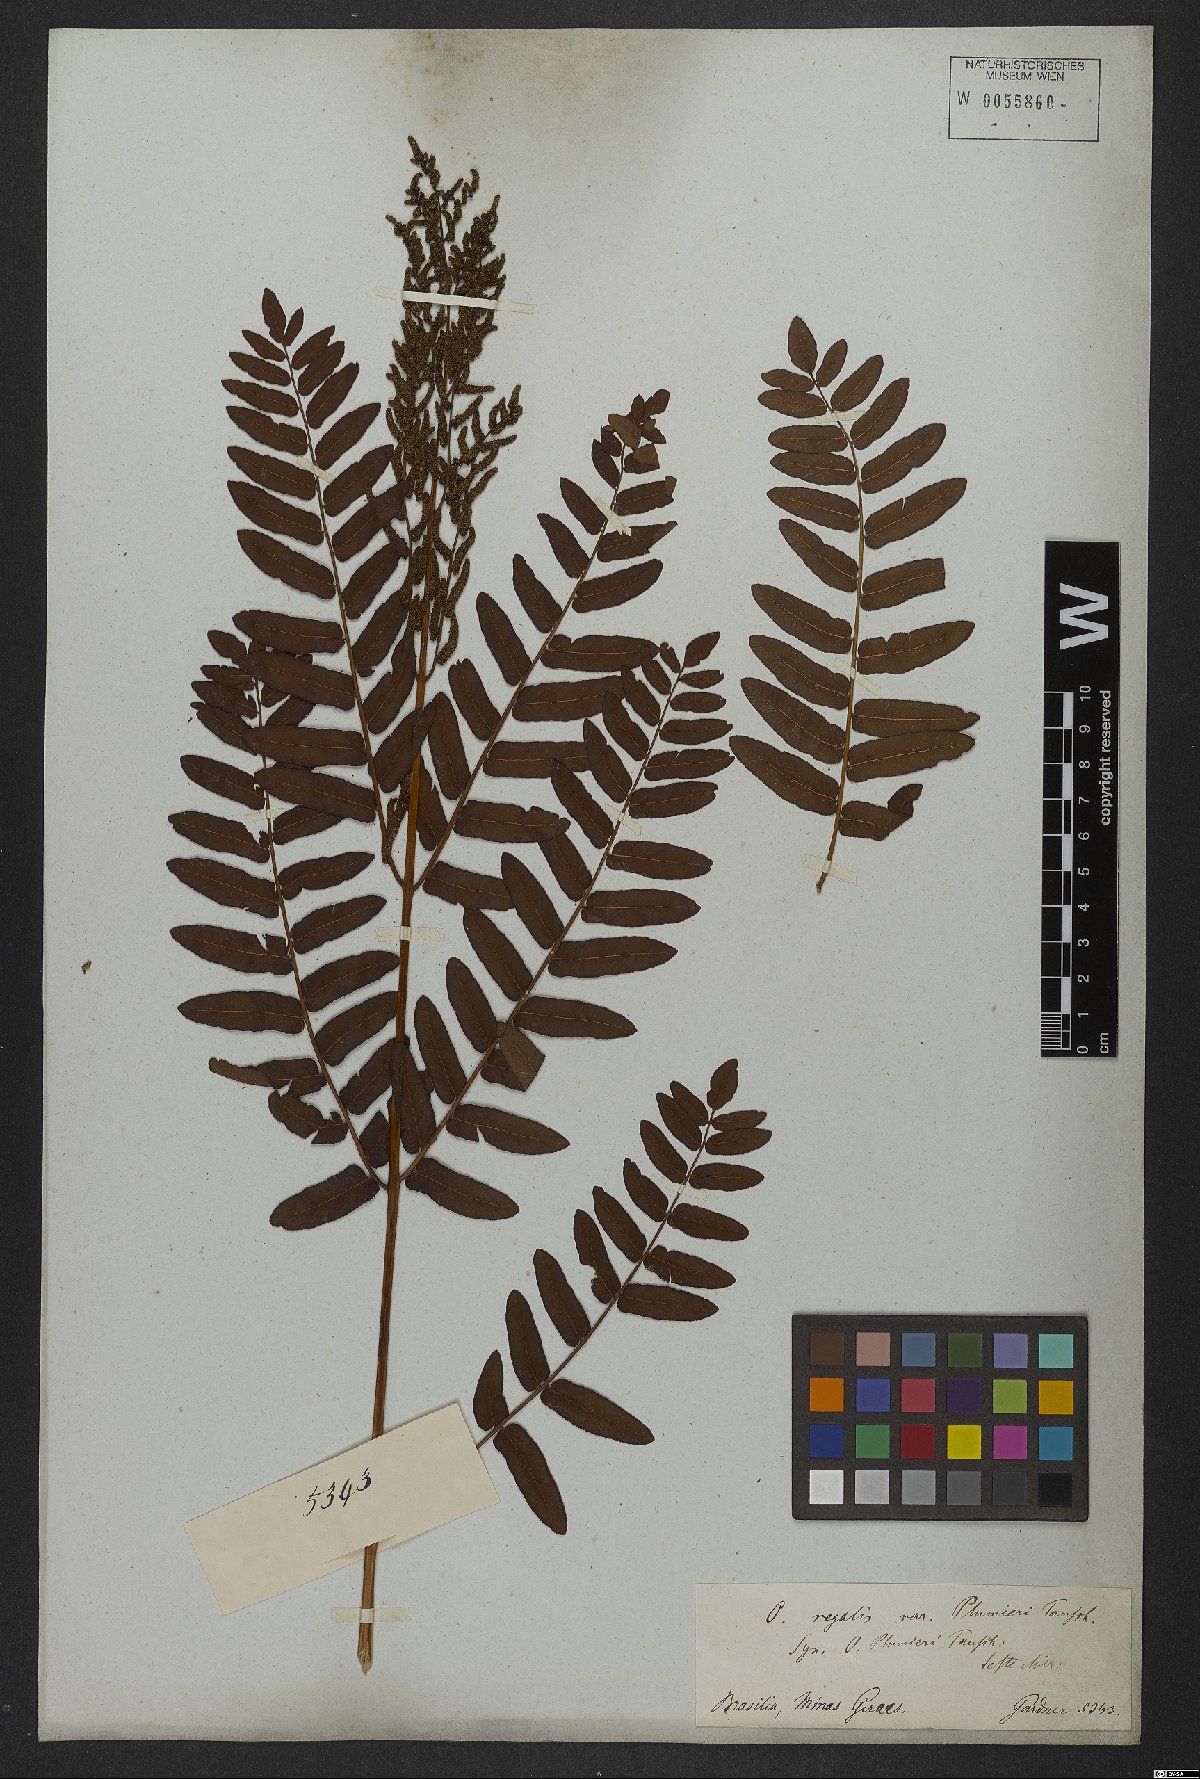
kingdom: Plantae
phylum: Tracheophyta
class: Polypodiopsida
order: Osmundales
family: Osmundaceae
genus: Osmunda
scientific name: Osmunda regalis
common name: Royal fern
